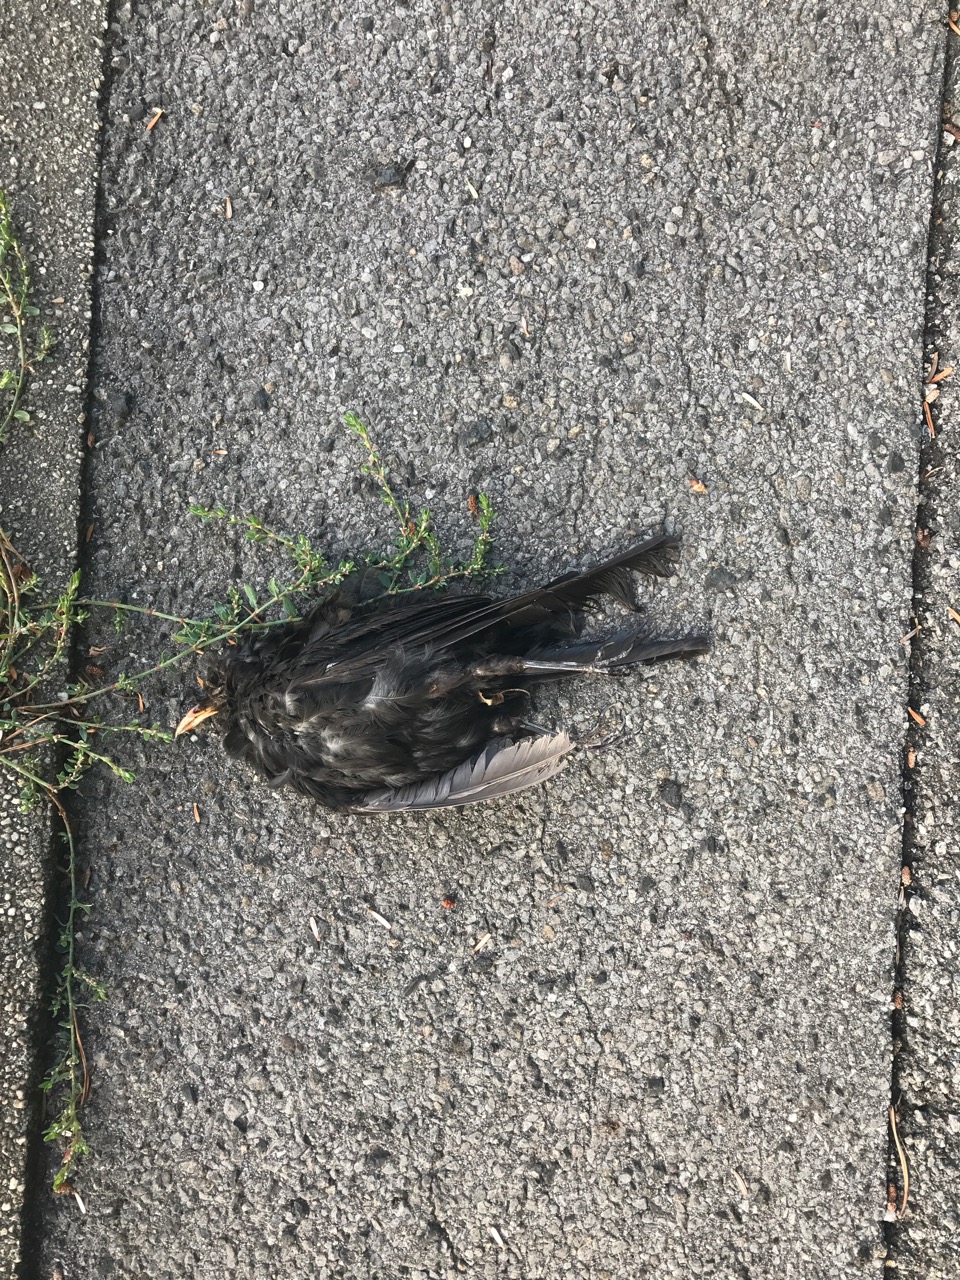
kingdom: Animalia
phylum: Chordata
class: Aves
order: Passeriformes
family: Turdidae
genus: Turdus
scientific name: Turdus merula
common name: Common blackbird
